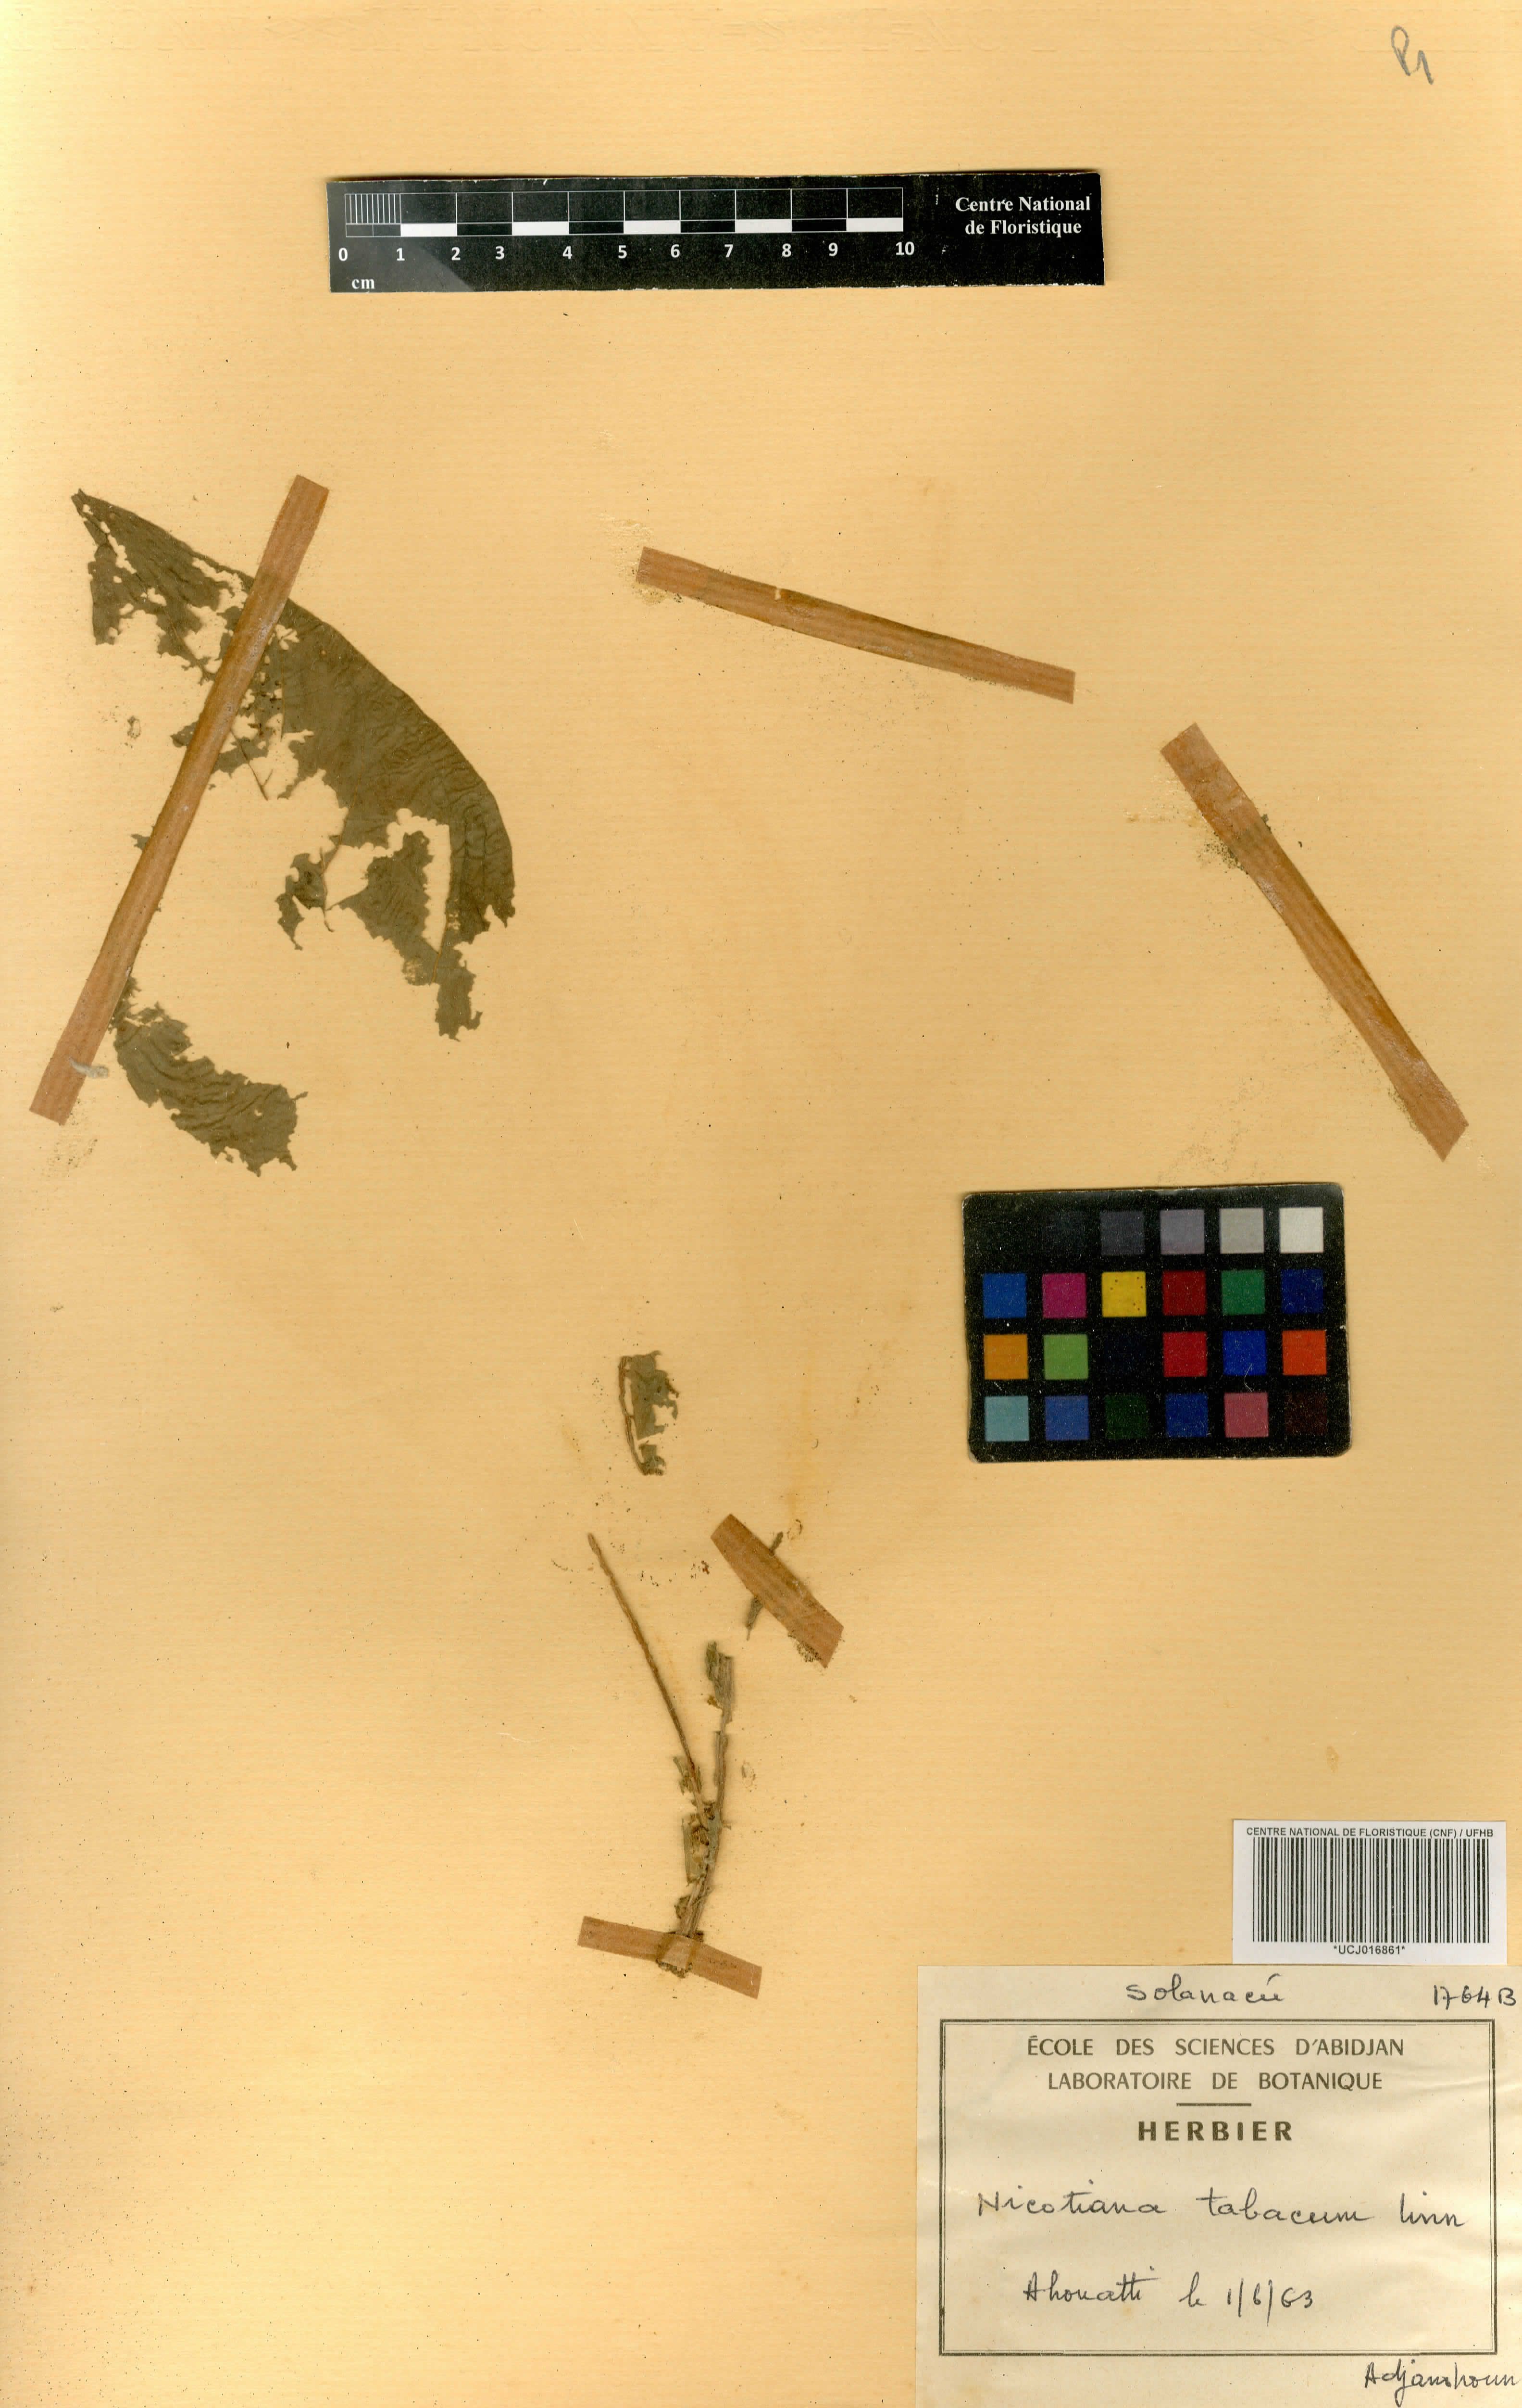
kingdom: Plantae
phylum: Tracheophyta
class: Magnoliopsida
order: Solanales
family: Solanaceae
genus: Nicotiana
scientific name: Nicotiana tabacum
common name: Tobacco
